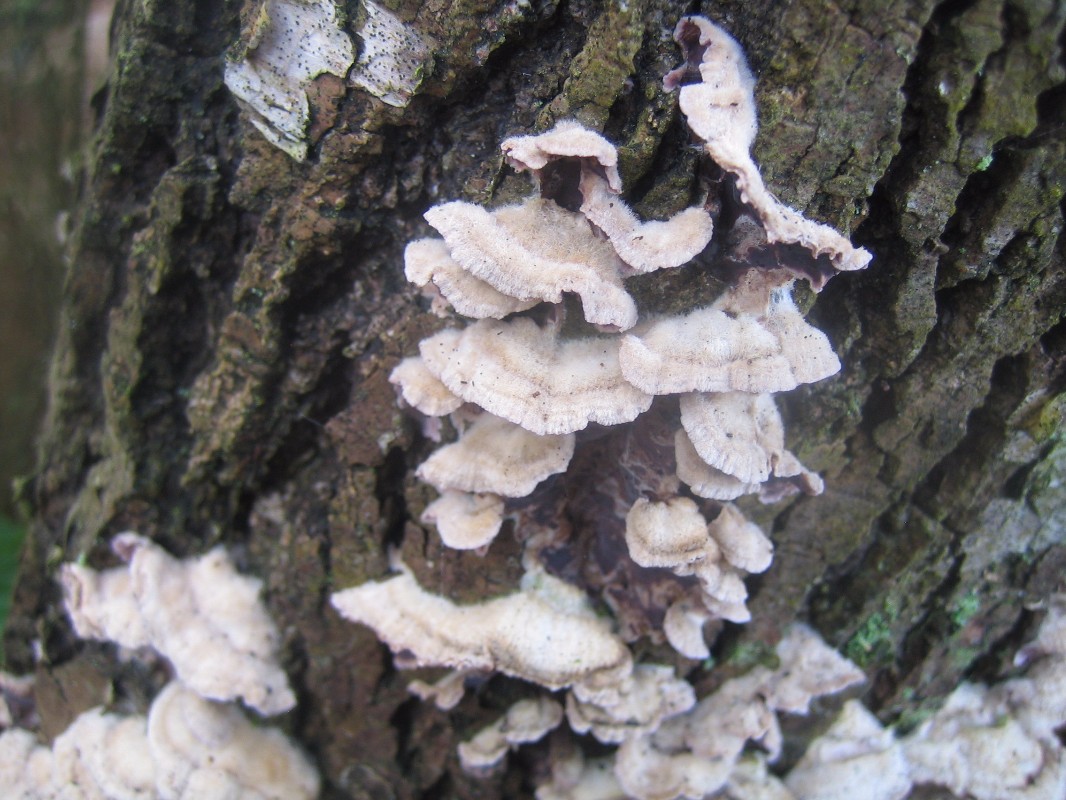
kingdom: Fungi
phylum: Basidiomycota
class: Agaricomycetes
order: Agaricales
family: Cyphellaceae
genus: Chondrostereum
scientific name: Chondrostereum purpureum
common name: purpurlædersvamp
